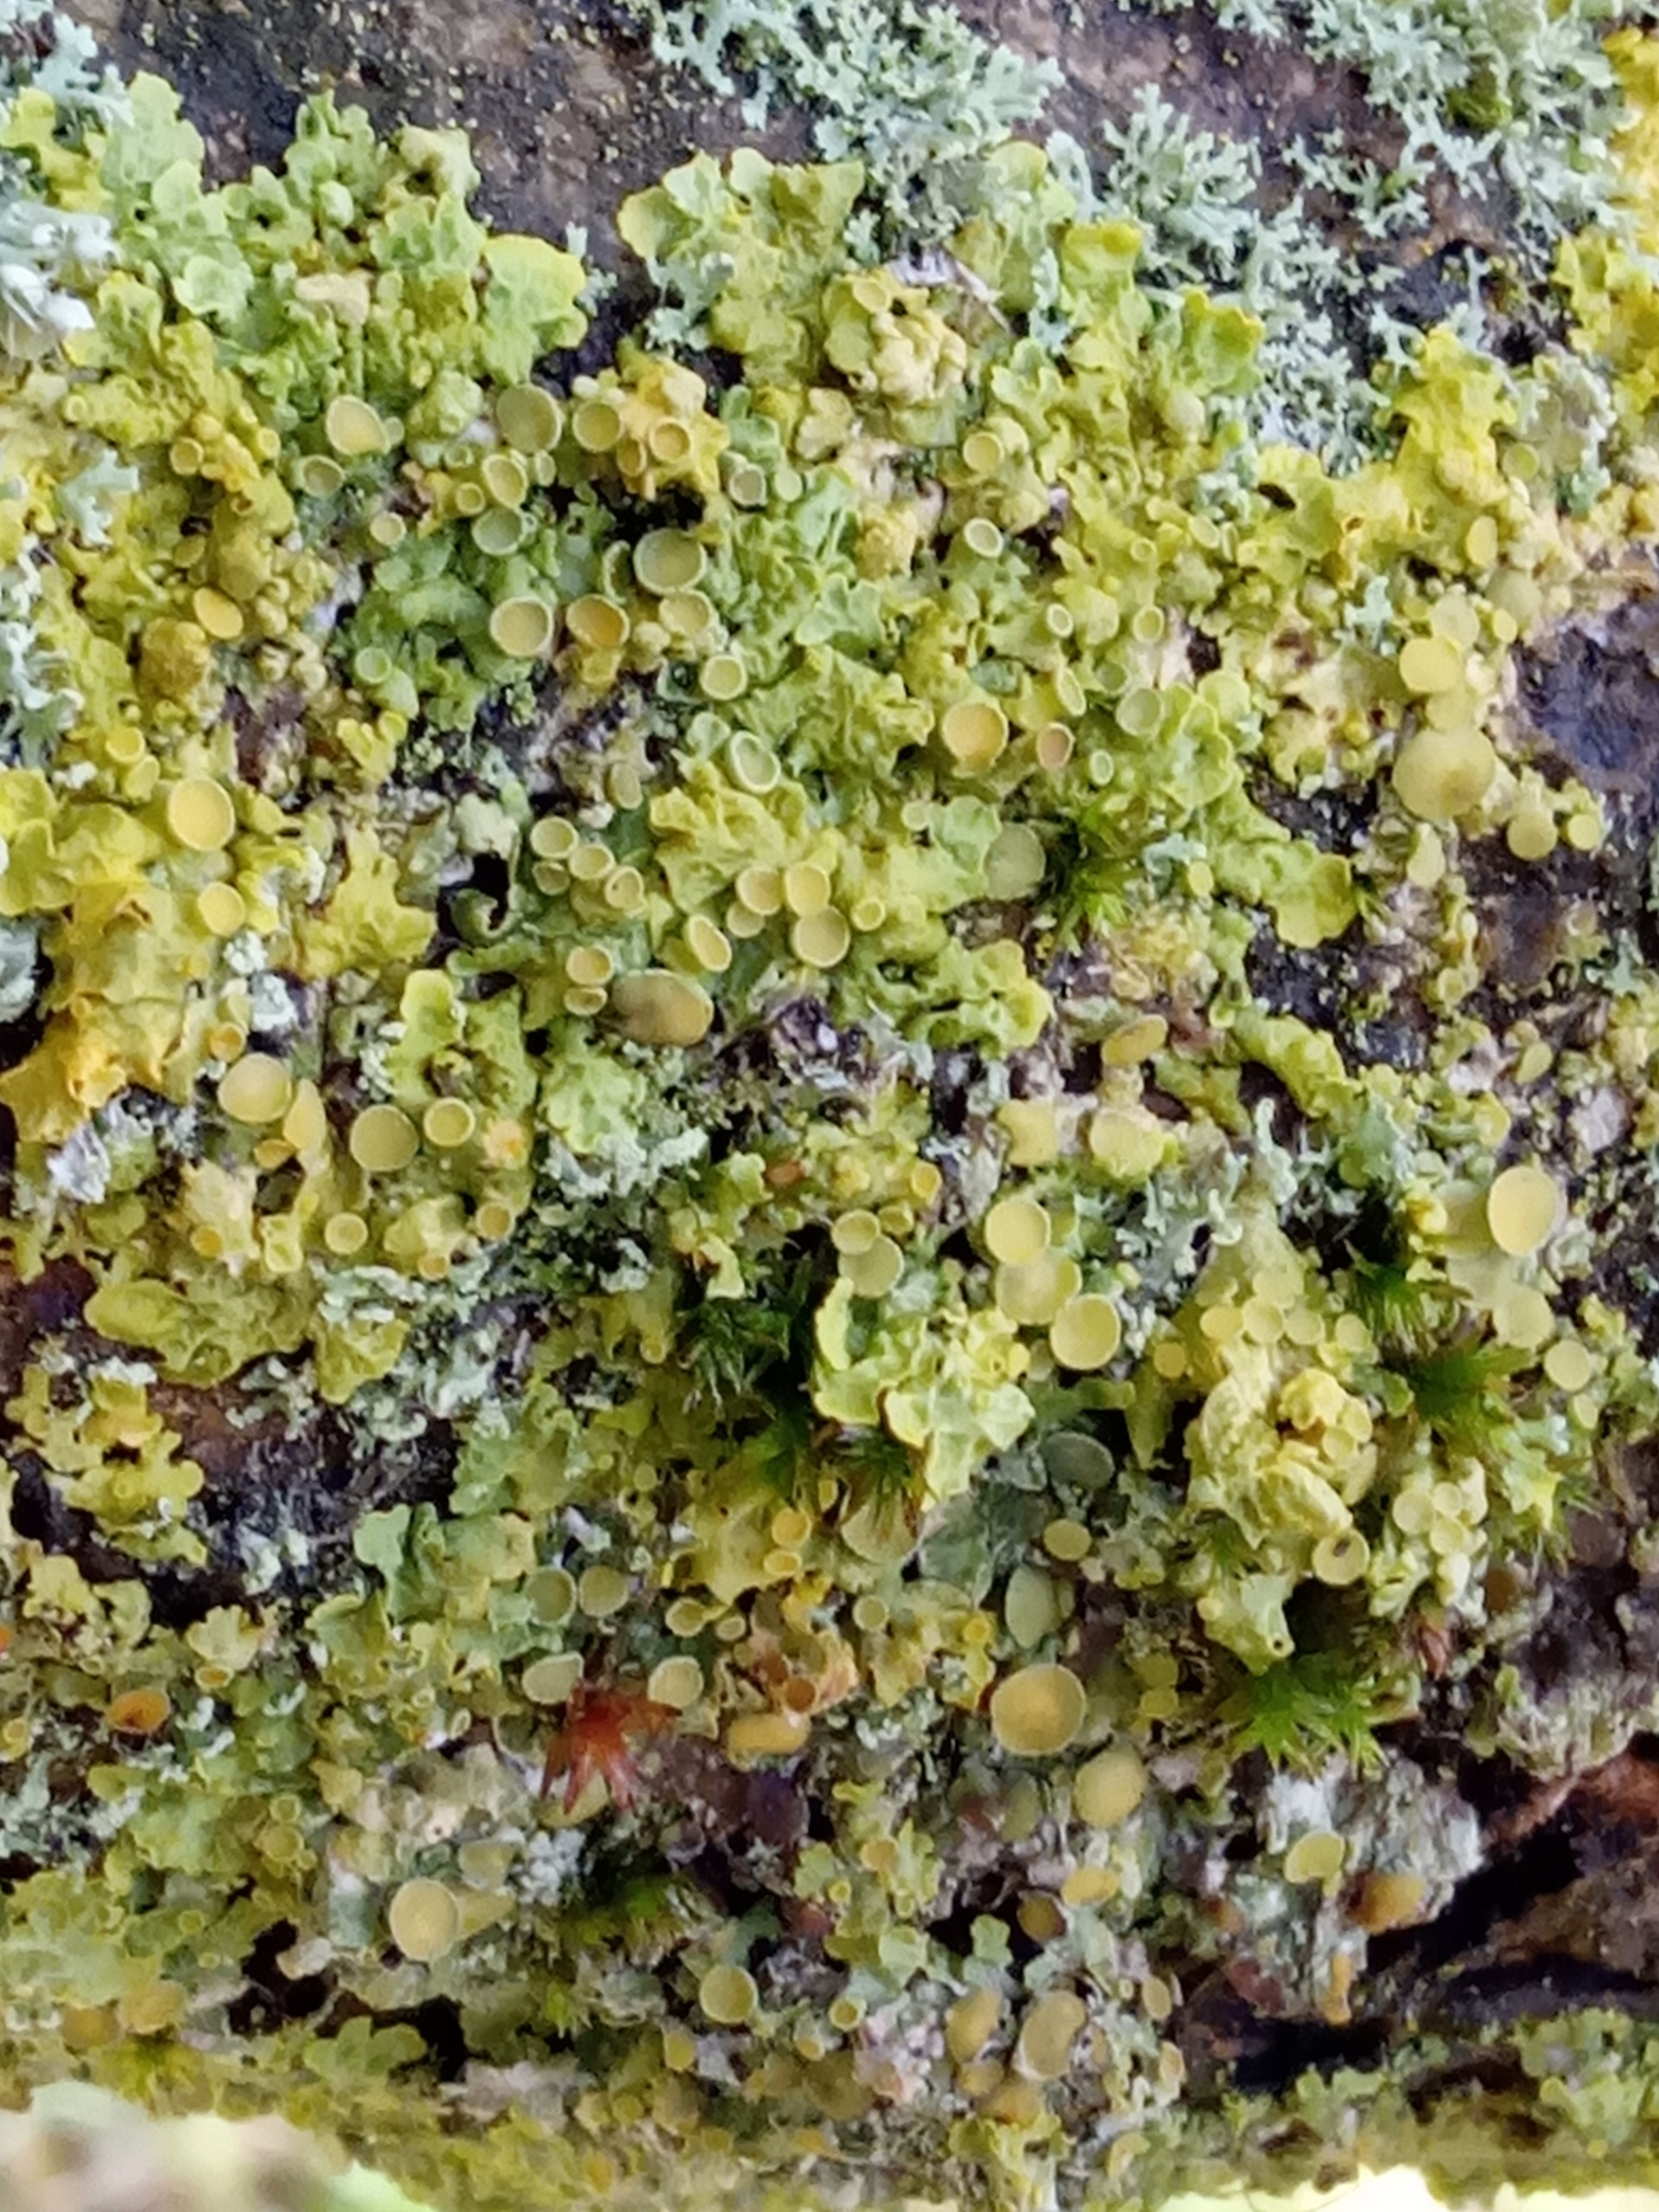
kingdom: Fungi
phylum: Ascomycota
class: Lecanoromycetes
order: Teloschistales
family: Teloschistaceae
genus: Xanthoria
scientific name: Xanthoria parietina
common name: Almindelig væggelav
